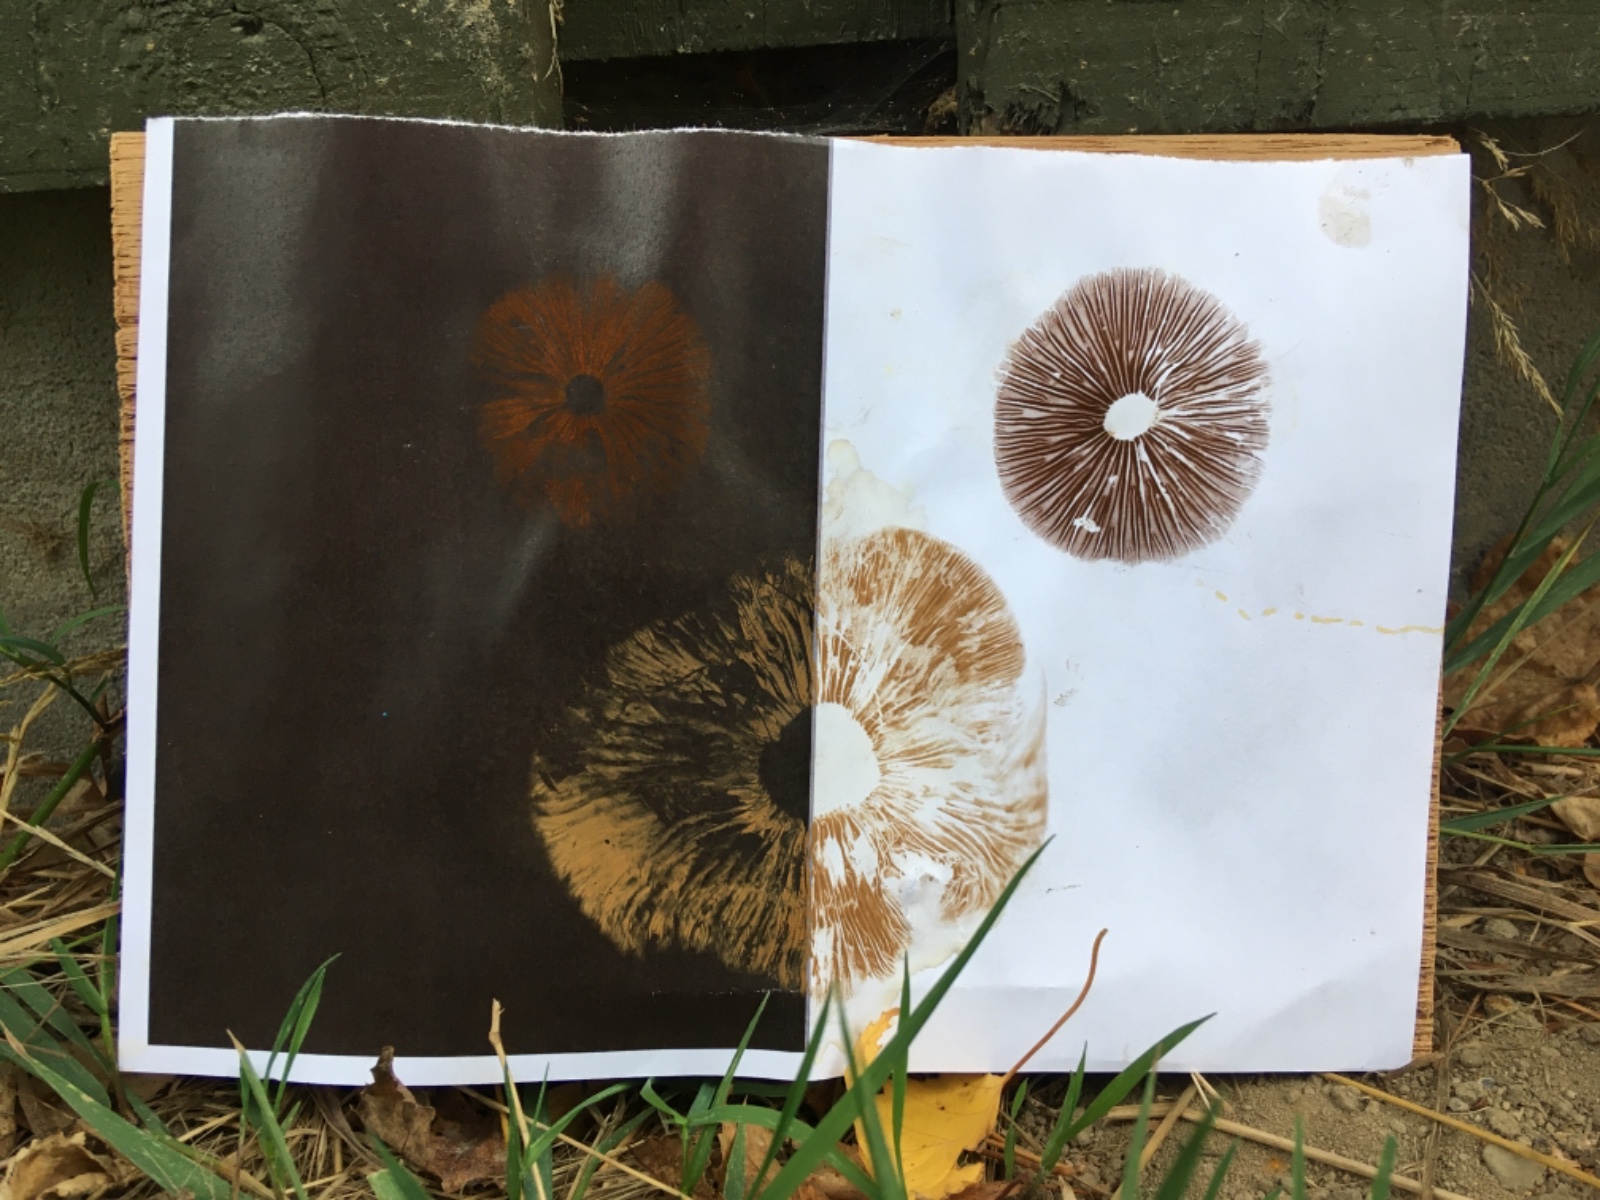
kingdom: Fungi
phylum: Basidiomycota
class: Agaricomycetes
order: Agaricales
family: Hymenogastraceae
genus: Hebeloma
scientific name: Hebeloma
